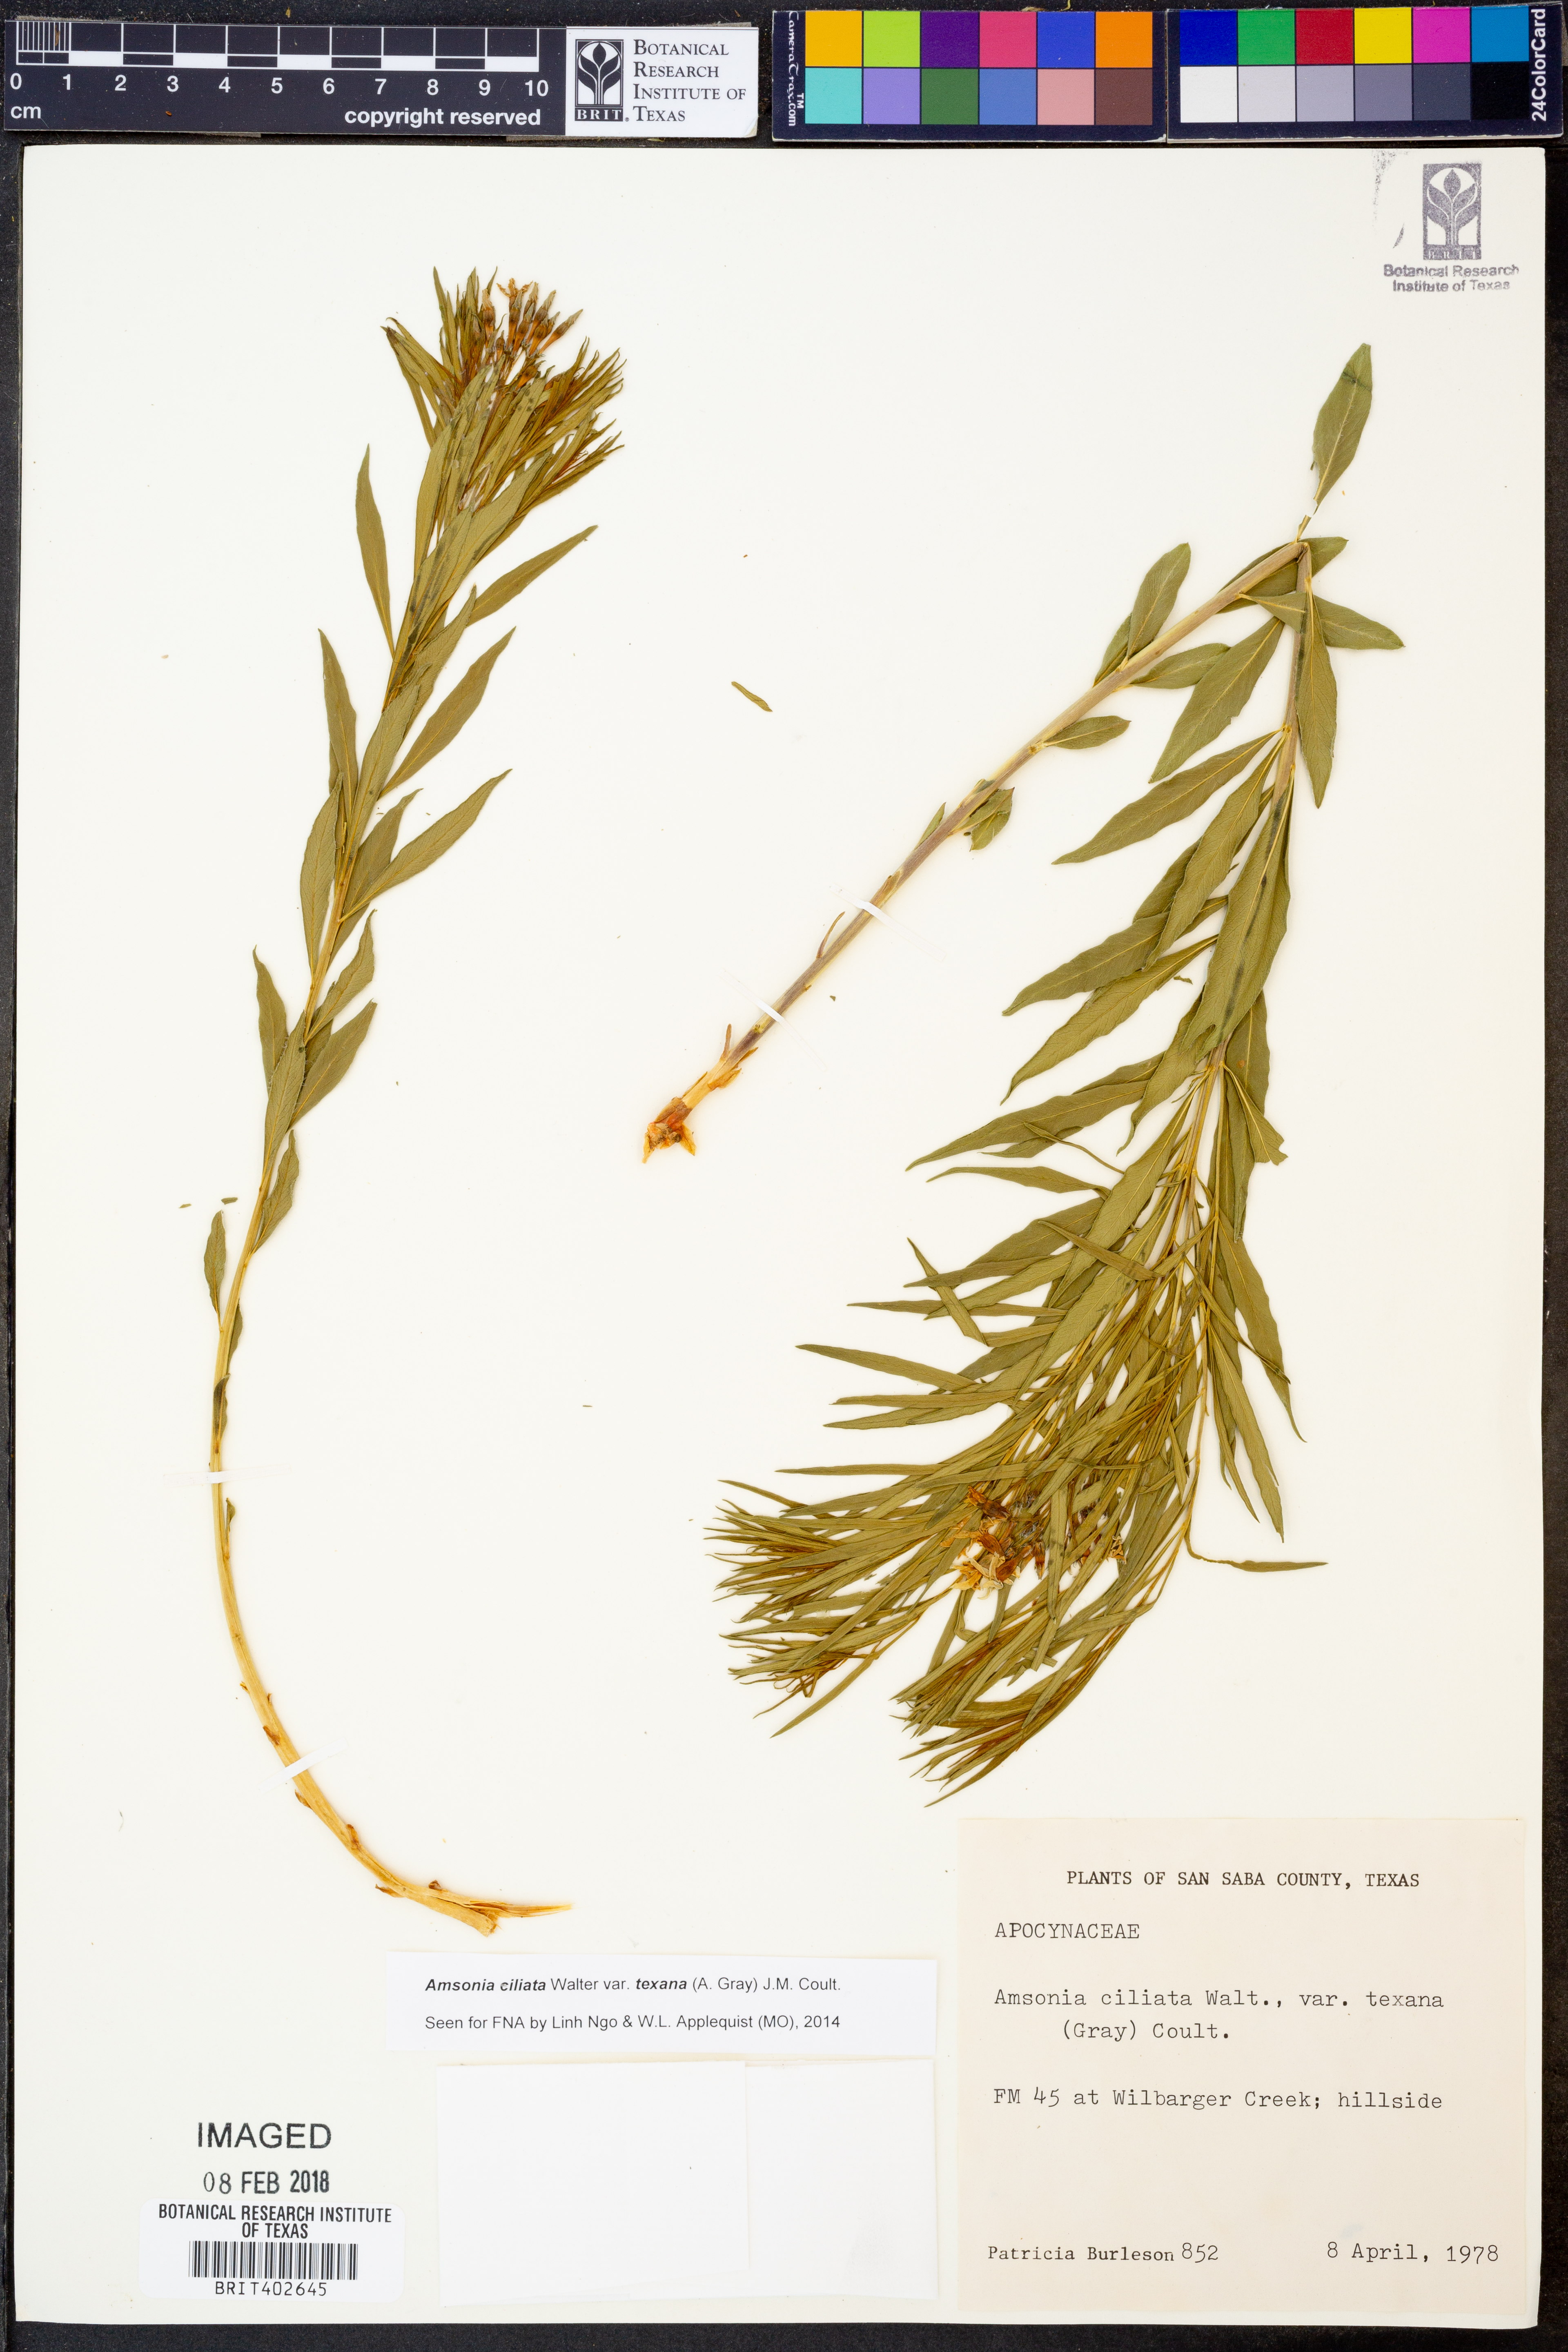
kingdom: Plantae
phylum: Tracheophyta
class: Magnoliopsida
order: Gentianales
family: Apocynaceae
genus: Amsonia
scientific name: Amsonia ciliata
